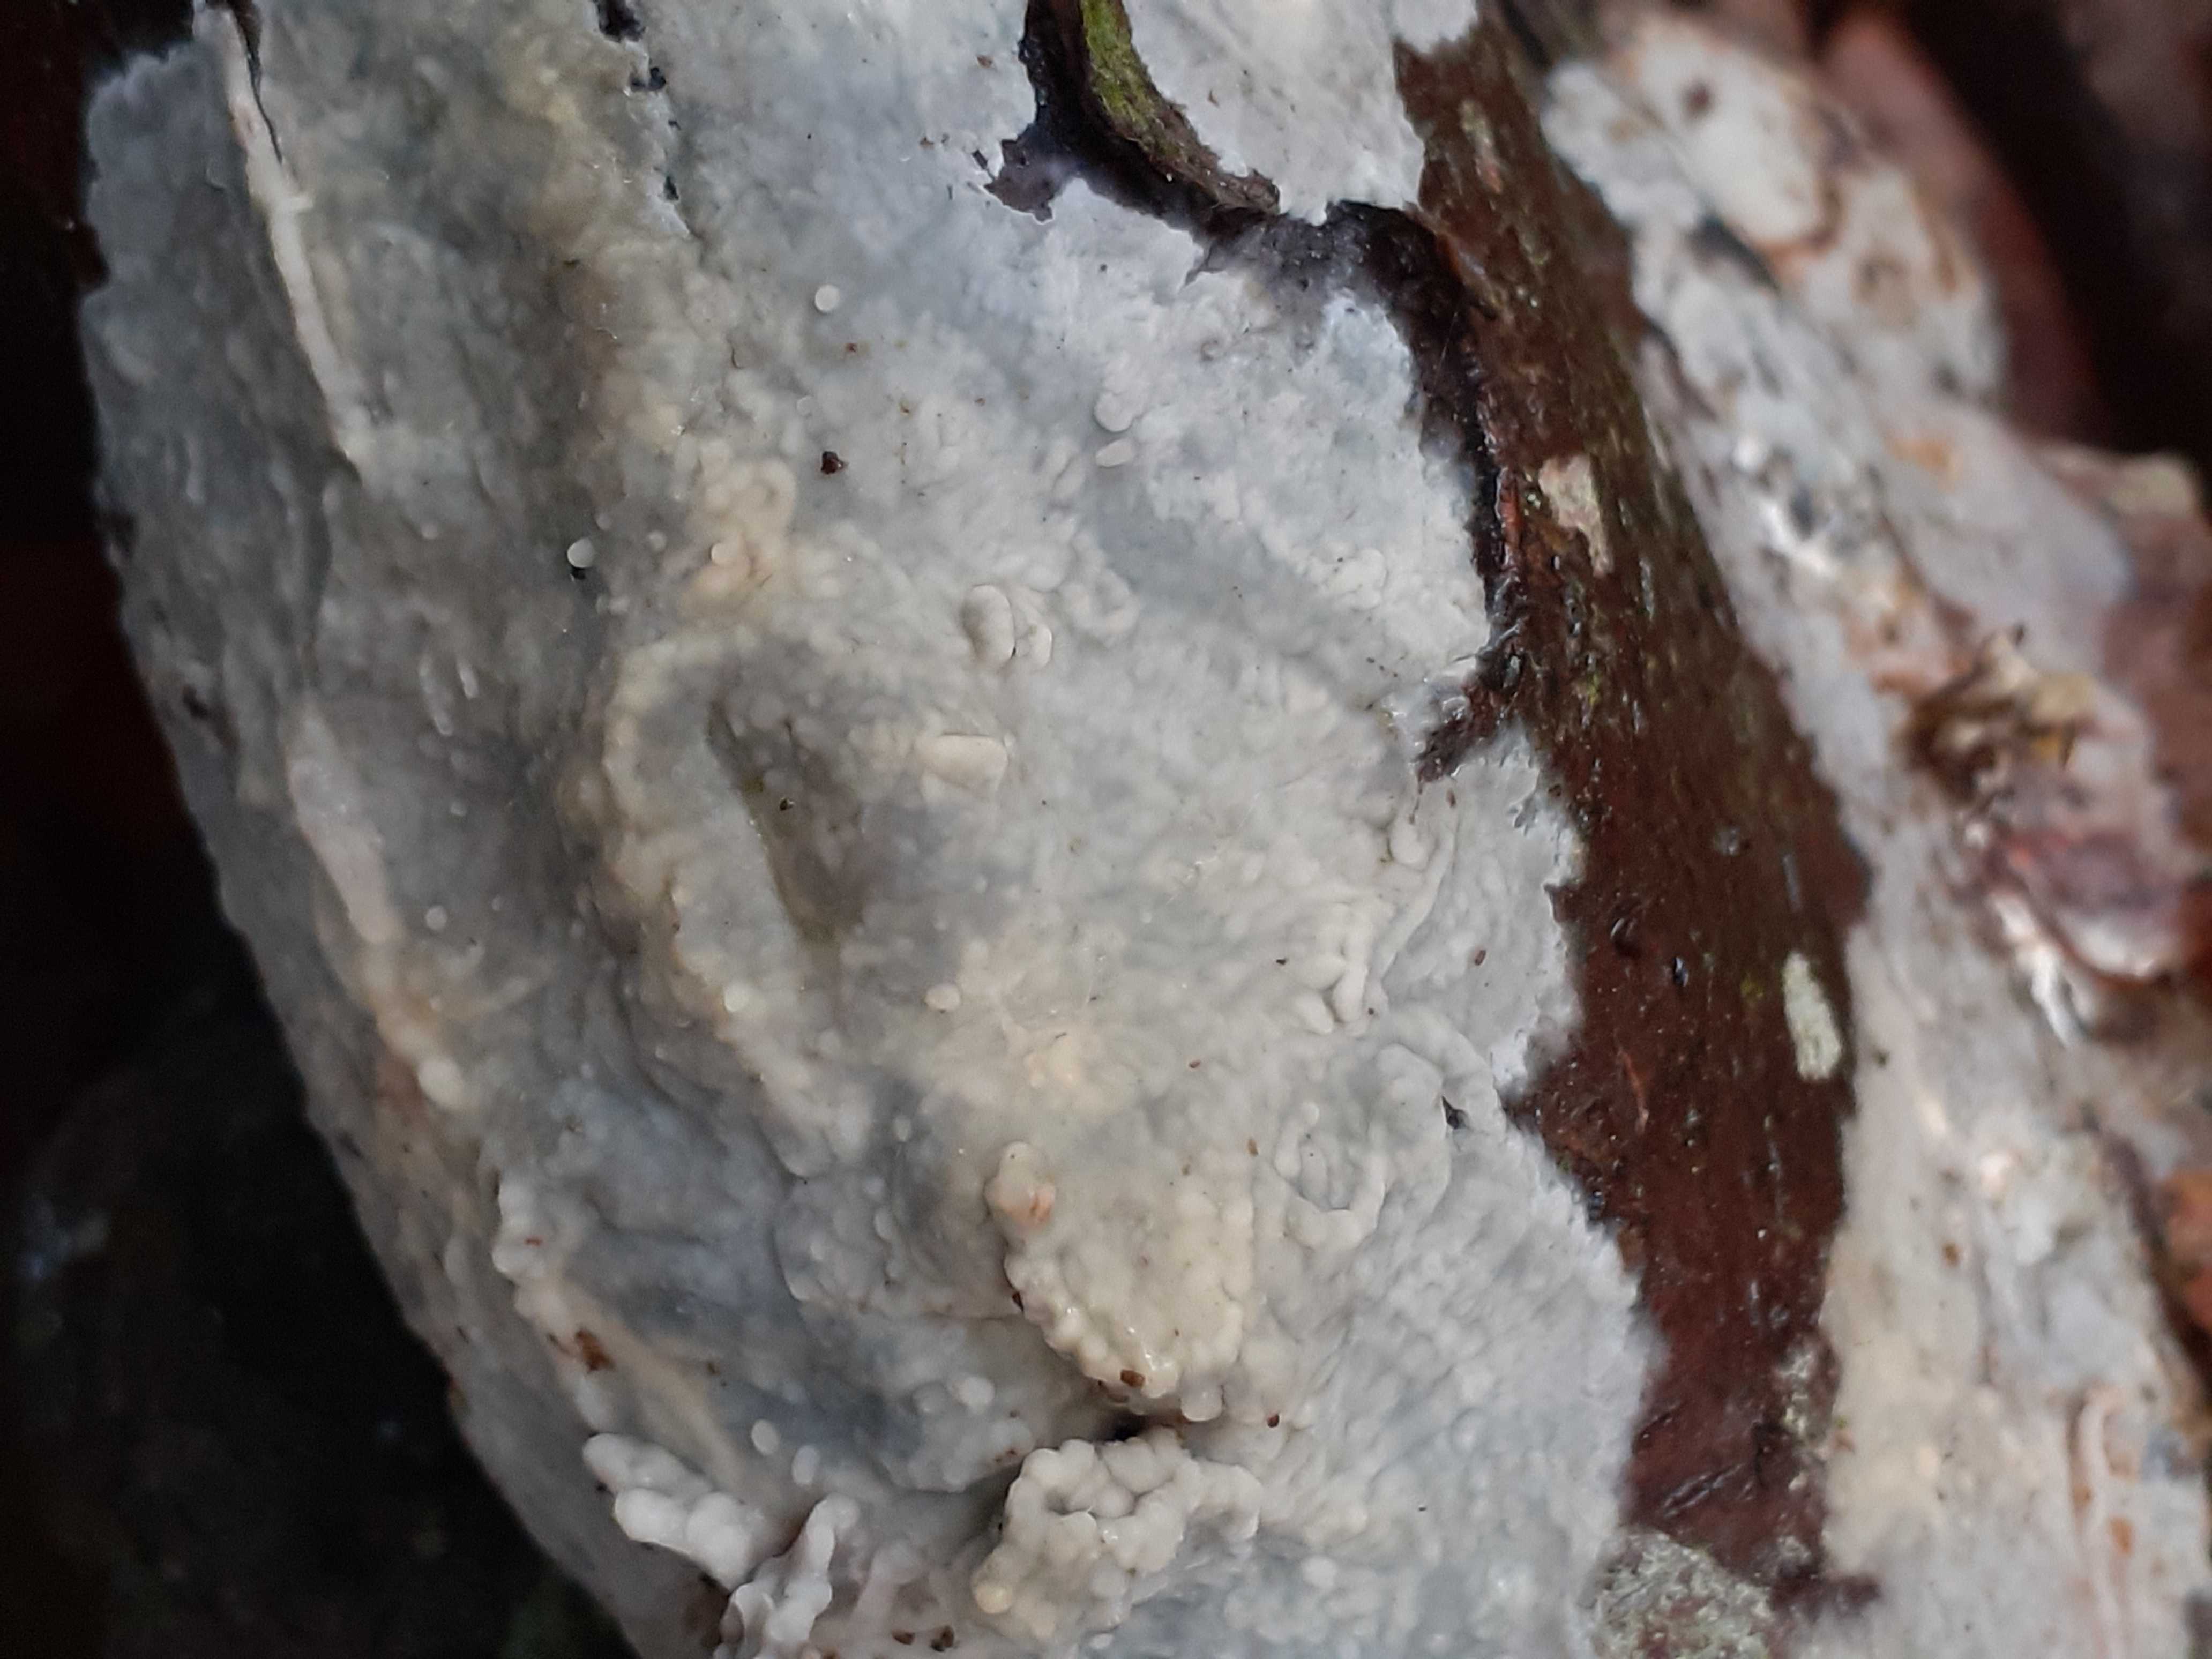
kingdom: Fungi
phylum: Basidiomycota
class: Agaricomycetes
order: Agaricales
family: Radulomycetaceae
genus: Radulomyces
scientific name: Radulomyces confluens
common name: glat naftalinskind
